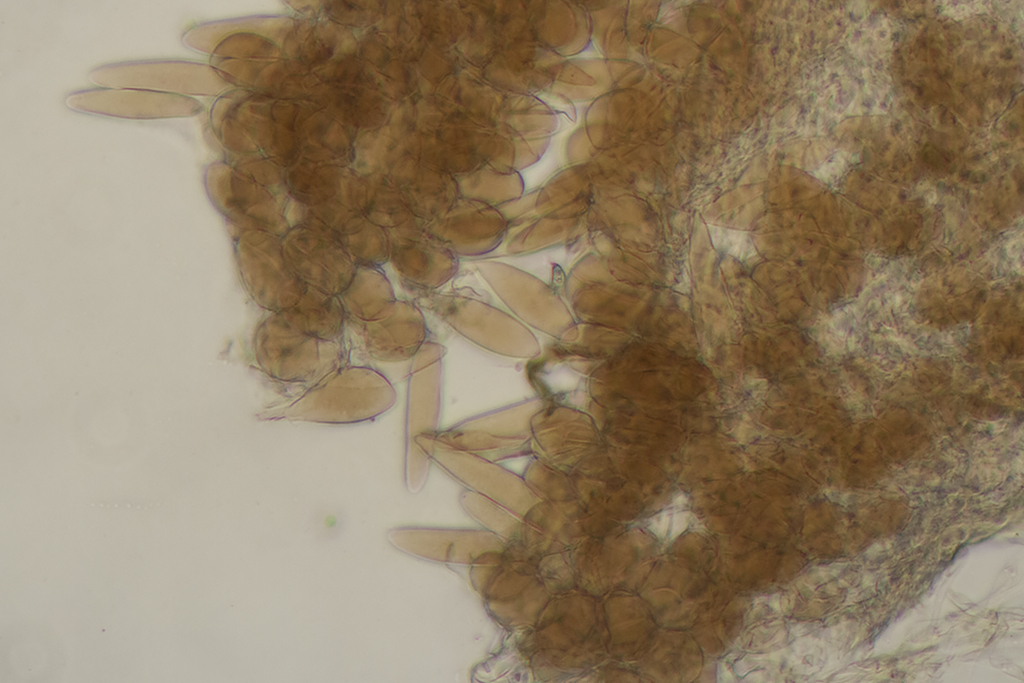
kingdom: Fungi
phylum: Basidiomycota
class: Agaricomycetes
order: Agaricales
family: Pluteaceae
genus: Pluteus
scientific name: Pluteus cutefractus
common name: sprukken skærmhat
